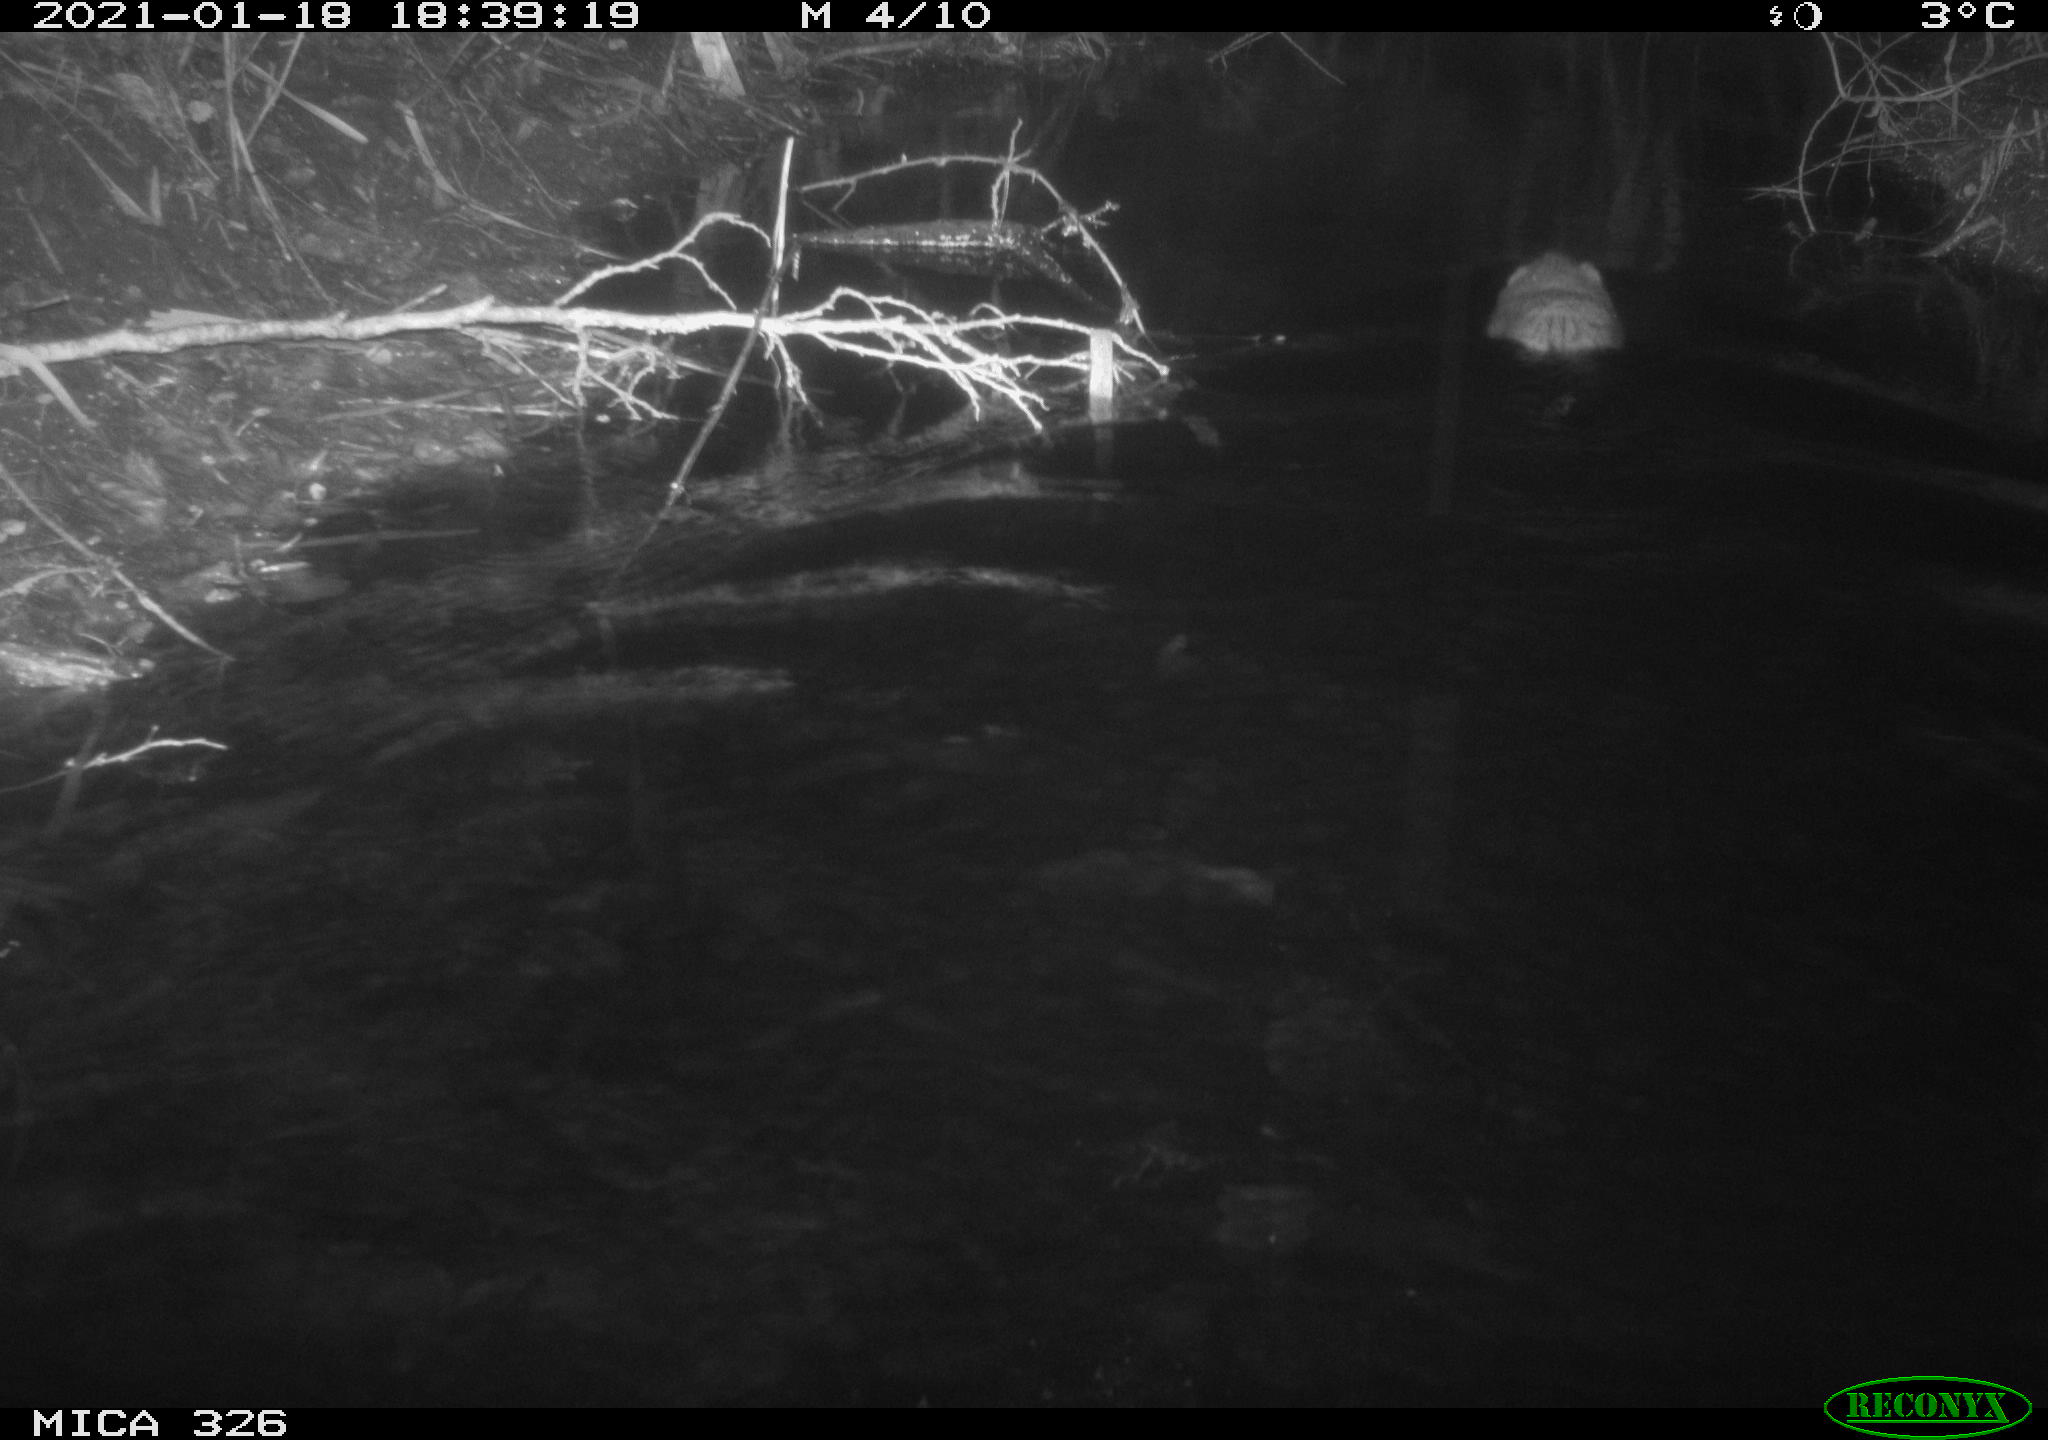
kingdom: Animalia
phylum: Chordata
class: Mammalia
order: Rodentia
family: Cricetidae
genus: Ondatra
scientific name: Ondatra zibethicus
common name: Muskrat
